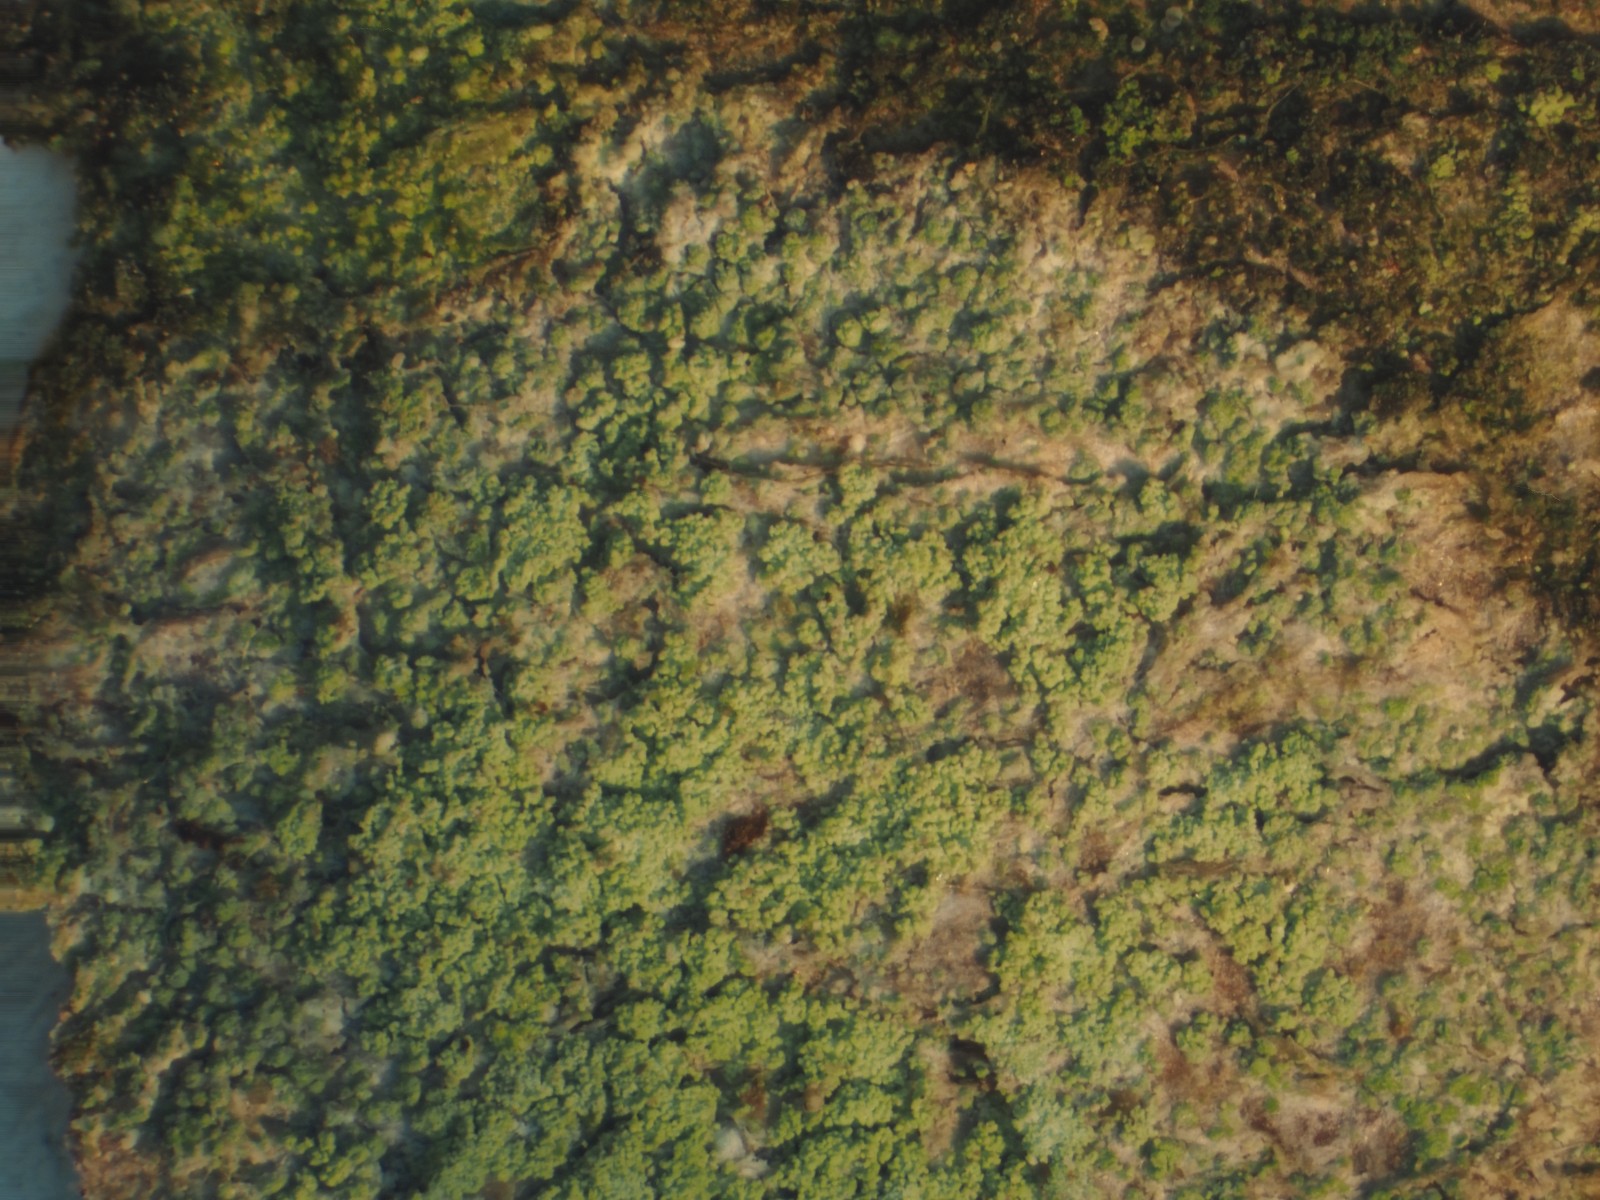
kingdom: Fungi
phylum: Ascomycota
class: Lecanoromycetes
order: Lecanorales
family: Byssolomataceae
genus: Fellhanera
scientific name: Fellhanera viridisorediata
